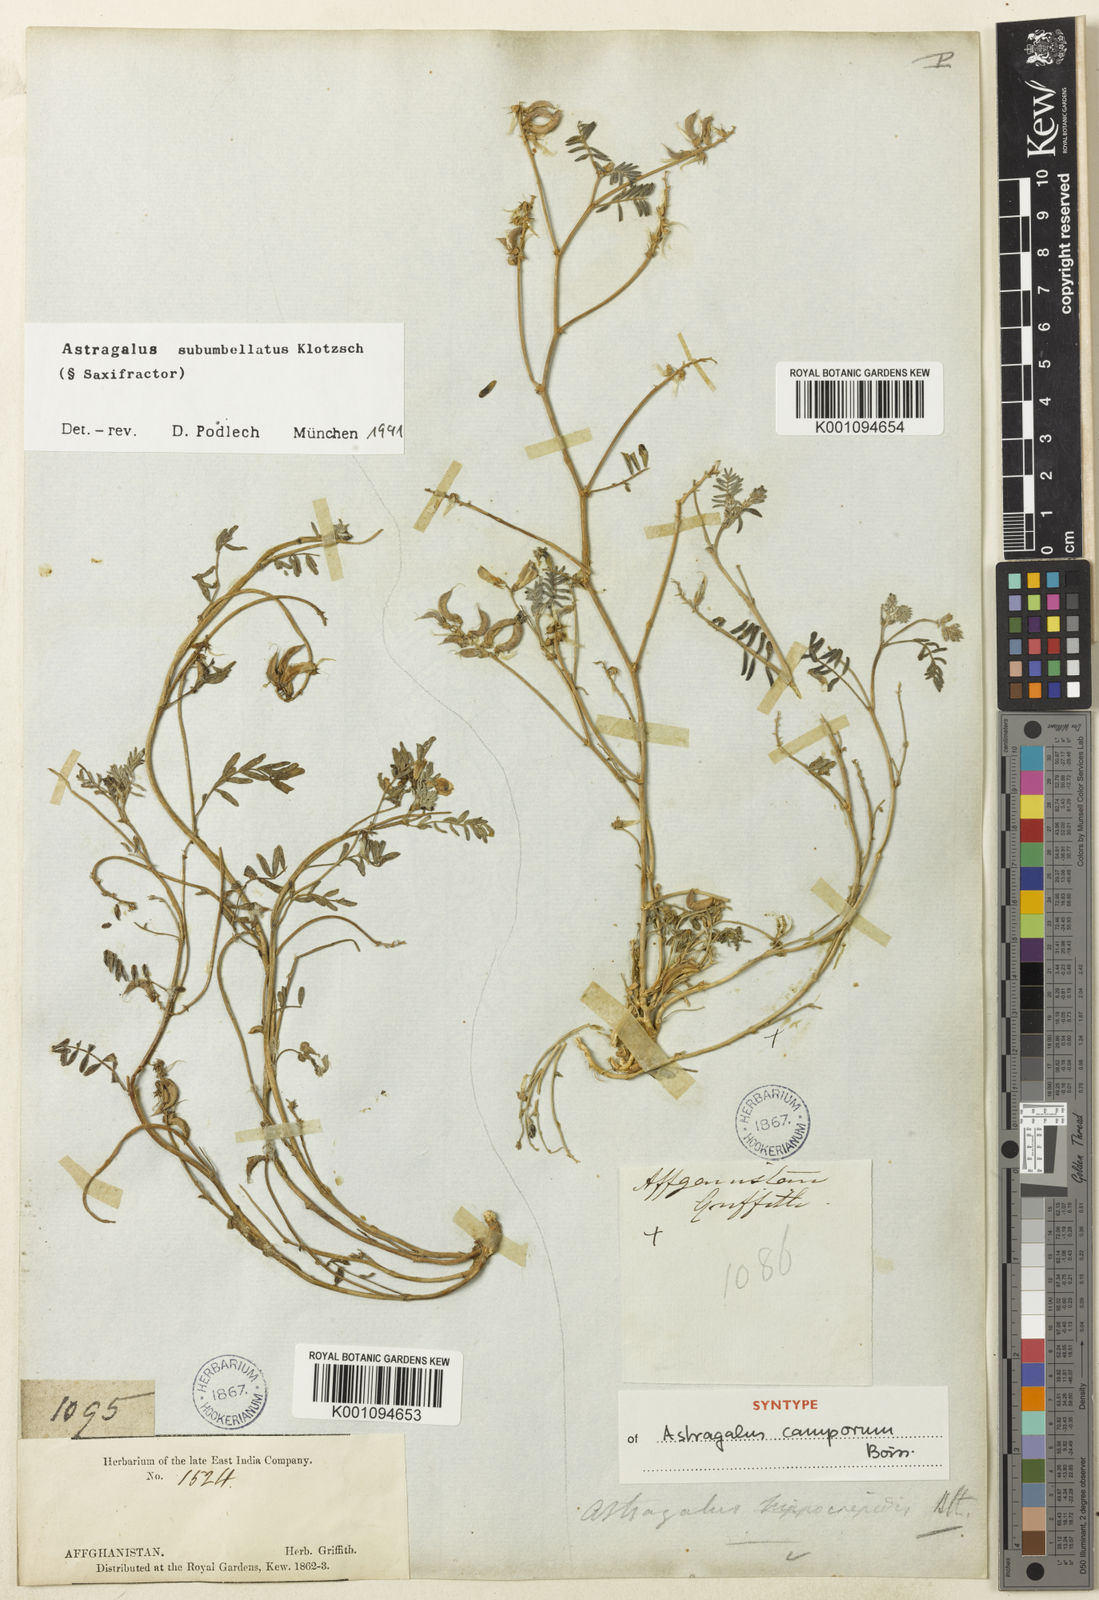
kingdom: Plantae
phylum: Tracheophyta
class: Magnoliopsida
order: Fabales
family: Fabaceae
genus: Astragalus
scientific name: Astragalus
